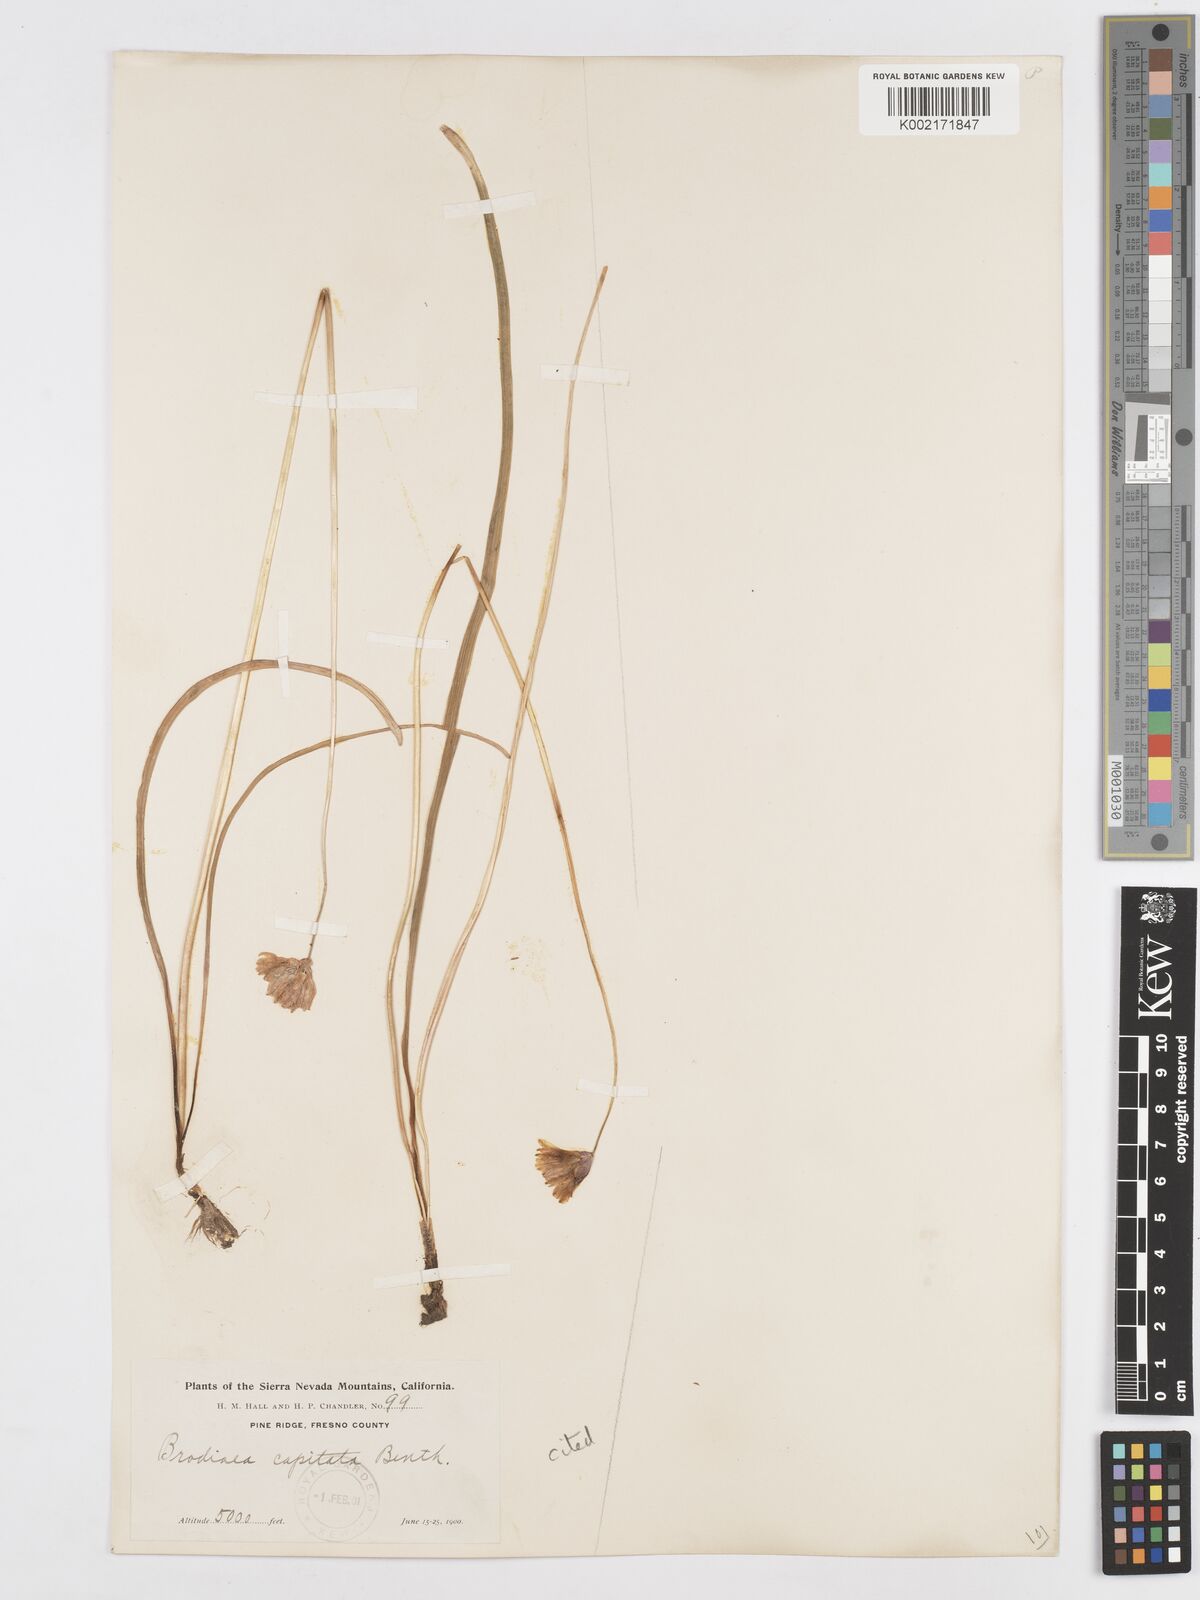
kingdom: Plantae
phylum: Tracheophyta
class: Liliopsida
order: Asparagales
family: Asparagaceae
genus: Dichelostemma
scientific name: Dichelostemma congestum
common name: Fork-tooth ookow
